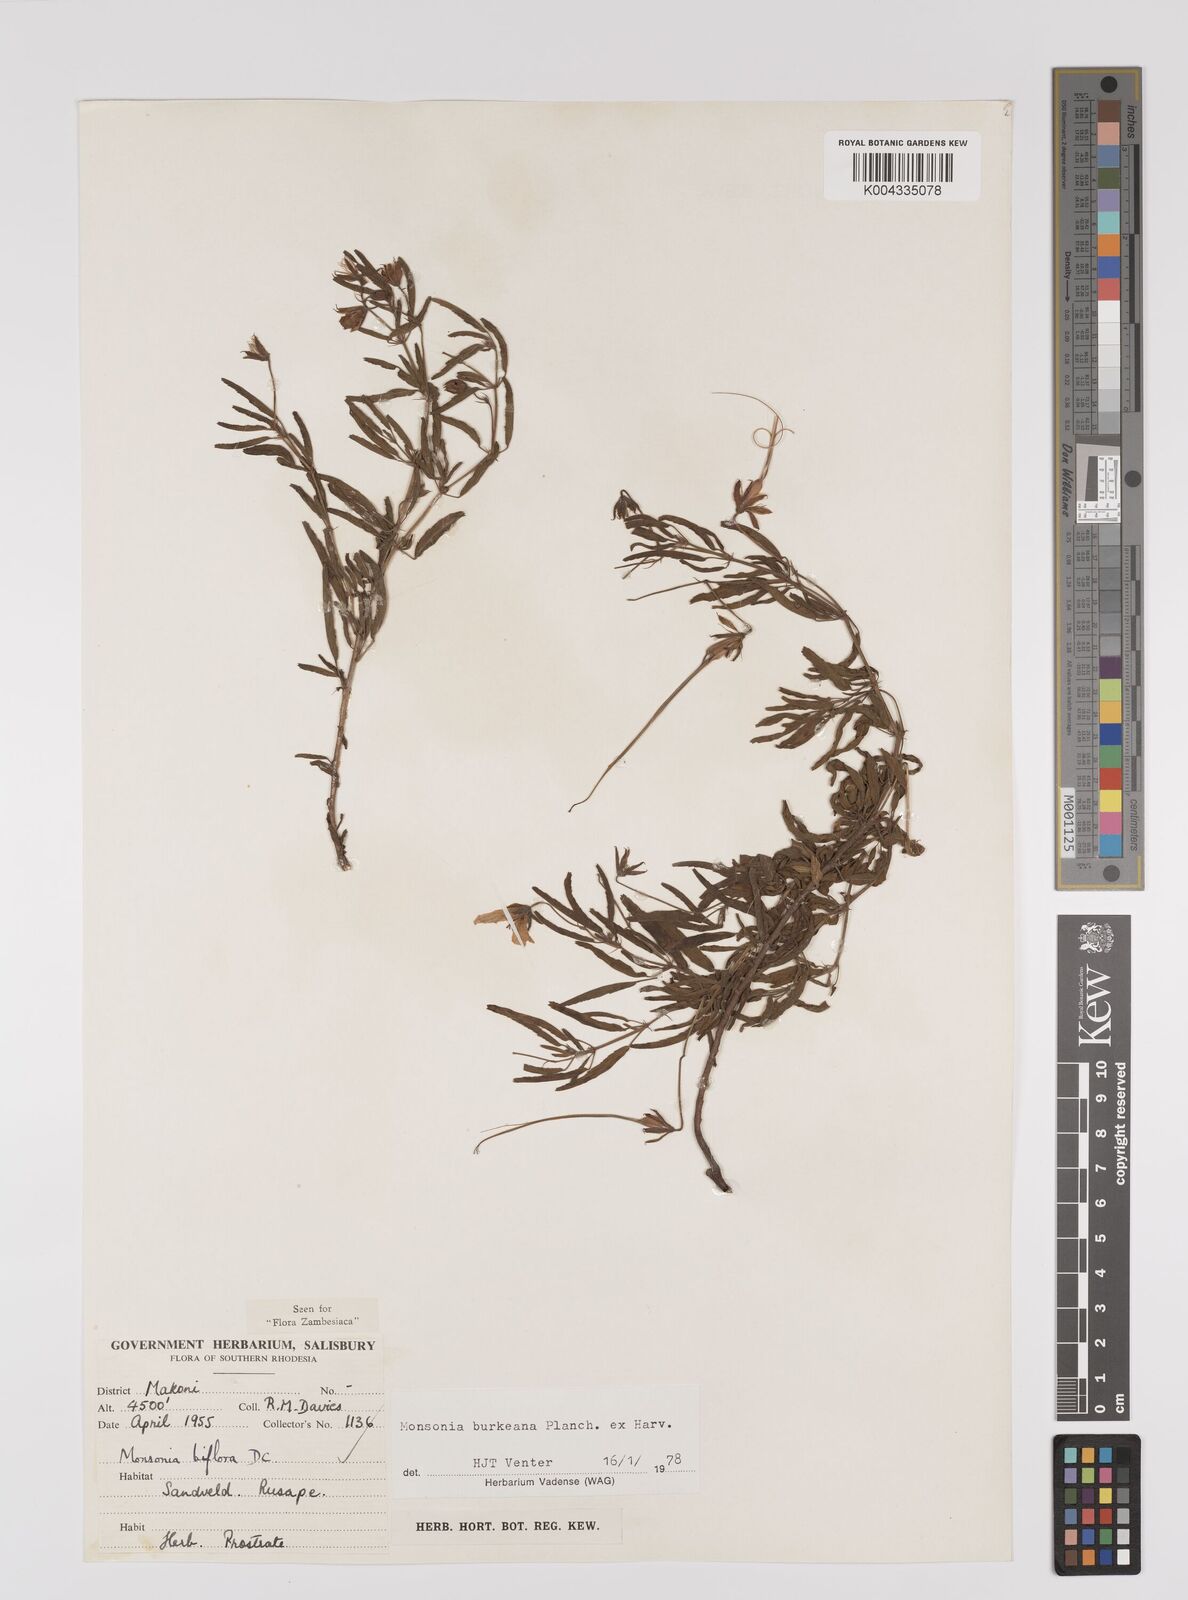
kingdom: Plantae
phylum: Tracheophyta
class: Magnoliopsida
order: Geraniales
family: Geraniaceae
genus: Monsonia
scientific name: Monsonia biflora
